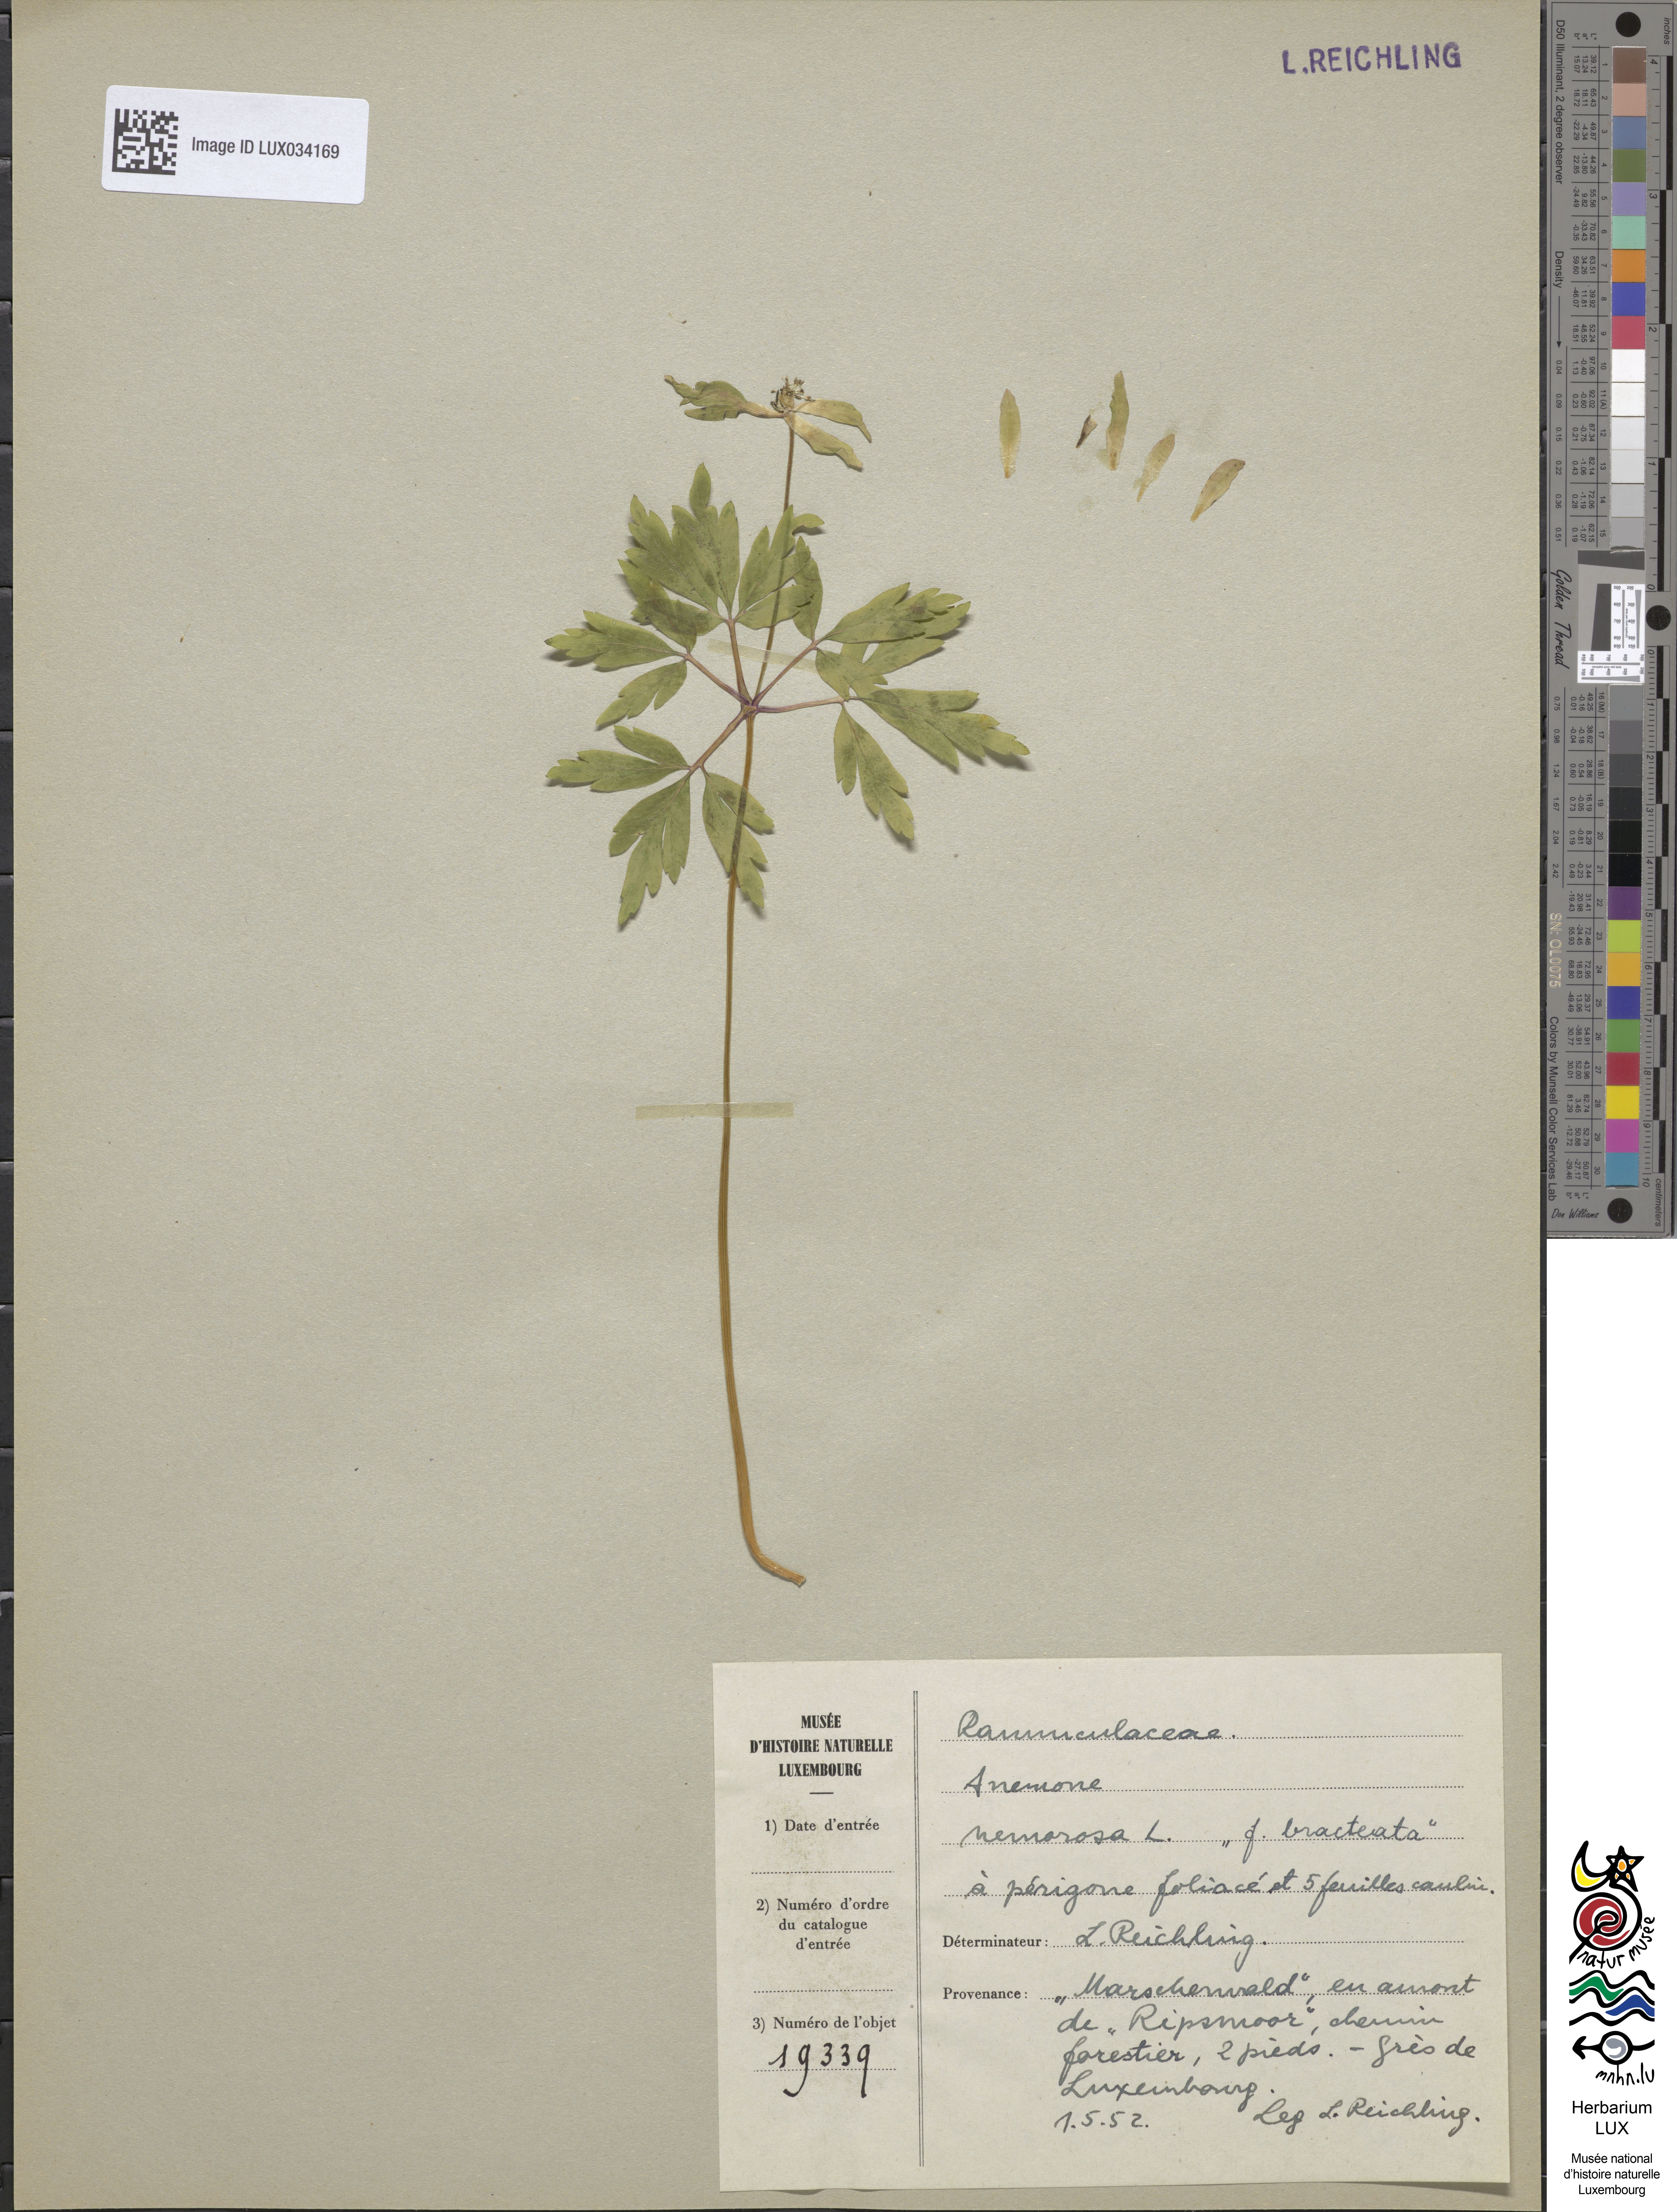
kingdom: Plantae
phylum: Tracheophyta
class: Magnoliopsida
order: Ranunculales
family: Ranunculaceae
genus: Anemone
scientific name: Anemone nemorosa
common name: Wood anemone
